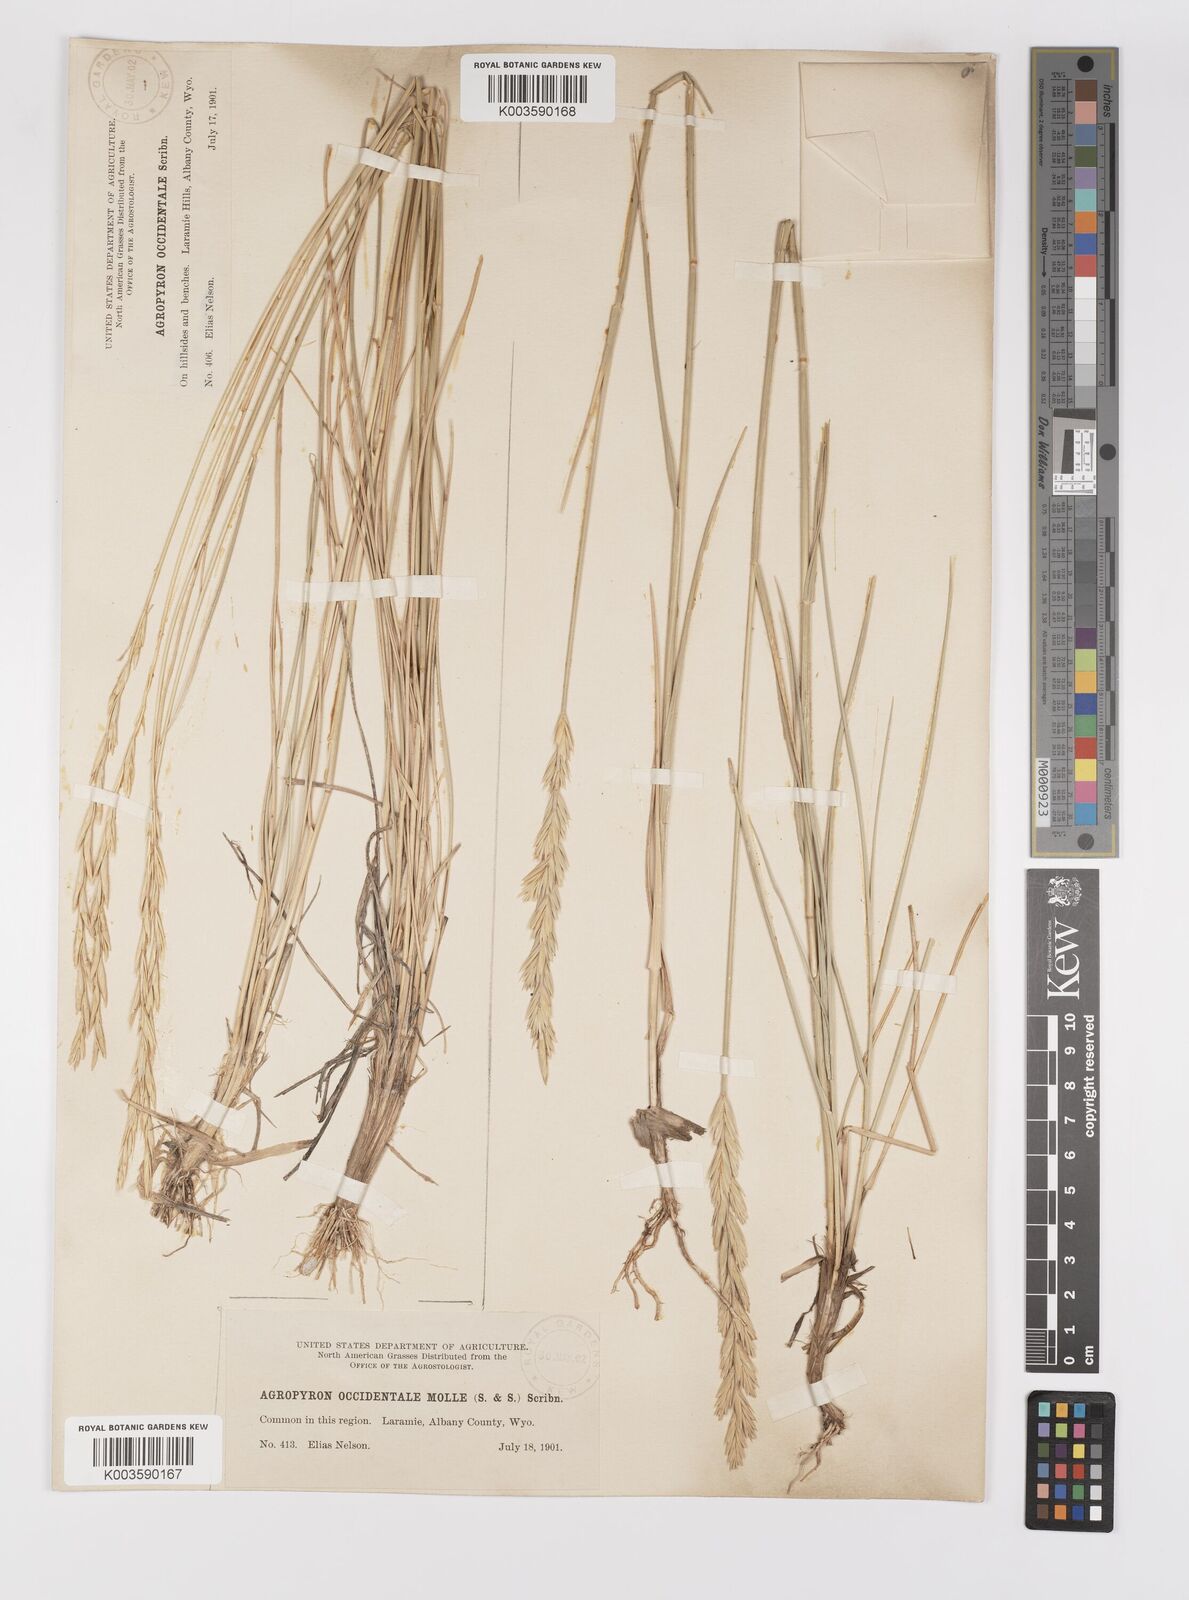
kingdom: Plantae
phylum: Tracheophyta
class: Liliopsida
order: Poales
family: Poaceae
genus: Elymus
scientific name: Elymus smithii
